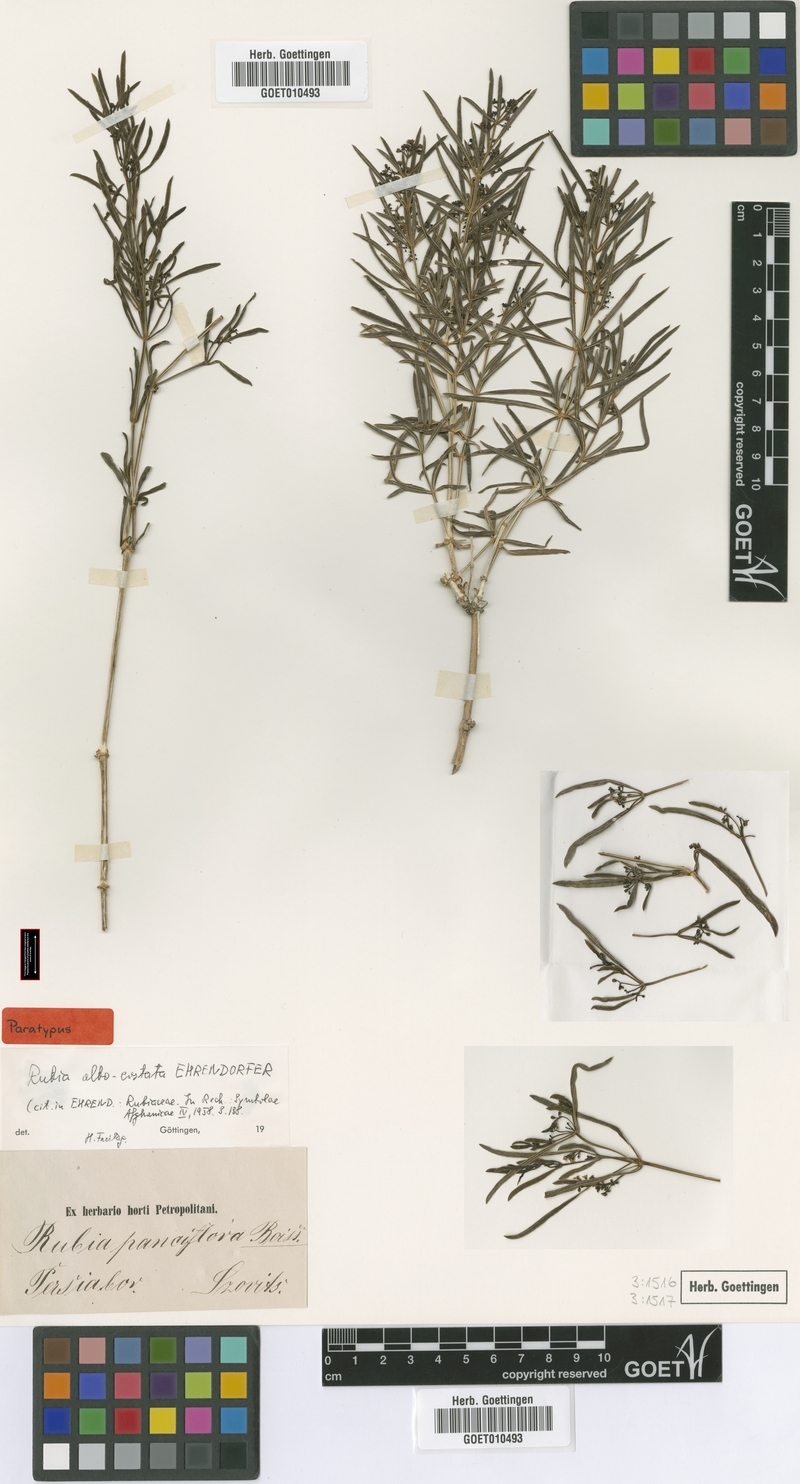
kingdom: Plantae
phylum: Tracheophyta
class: Magnoliopsida
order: Gentianales
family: Rubiaceae
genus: Rubia
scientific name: Rubia rigidifolia
